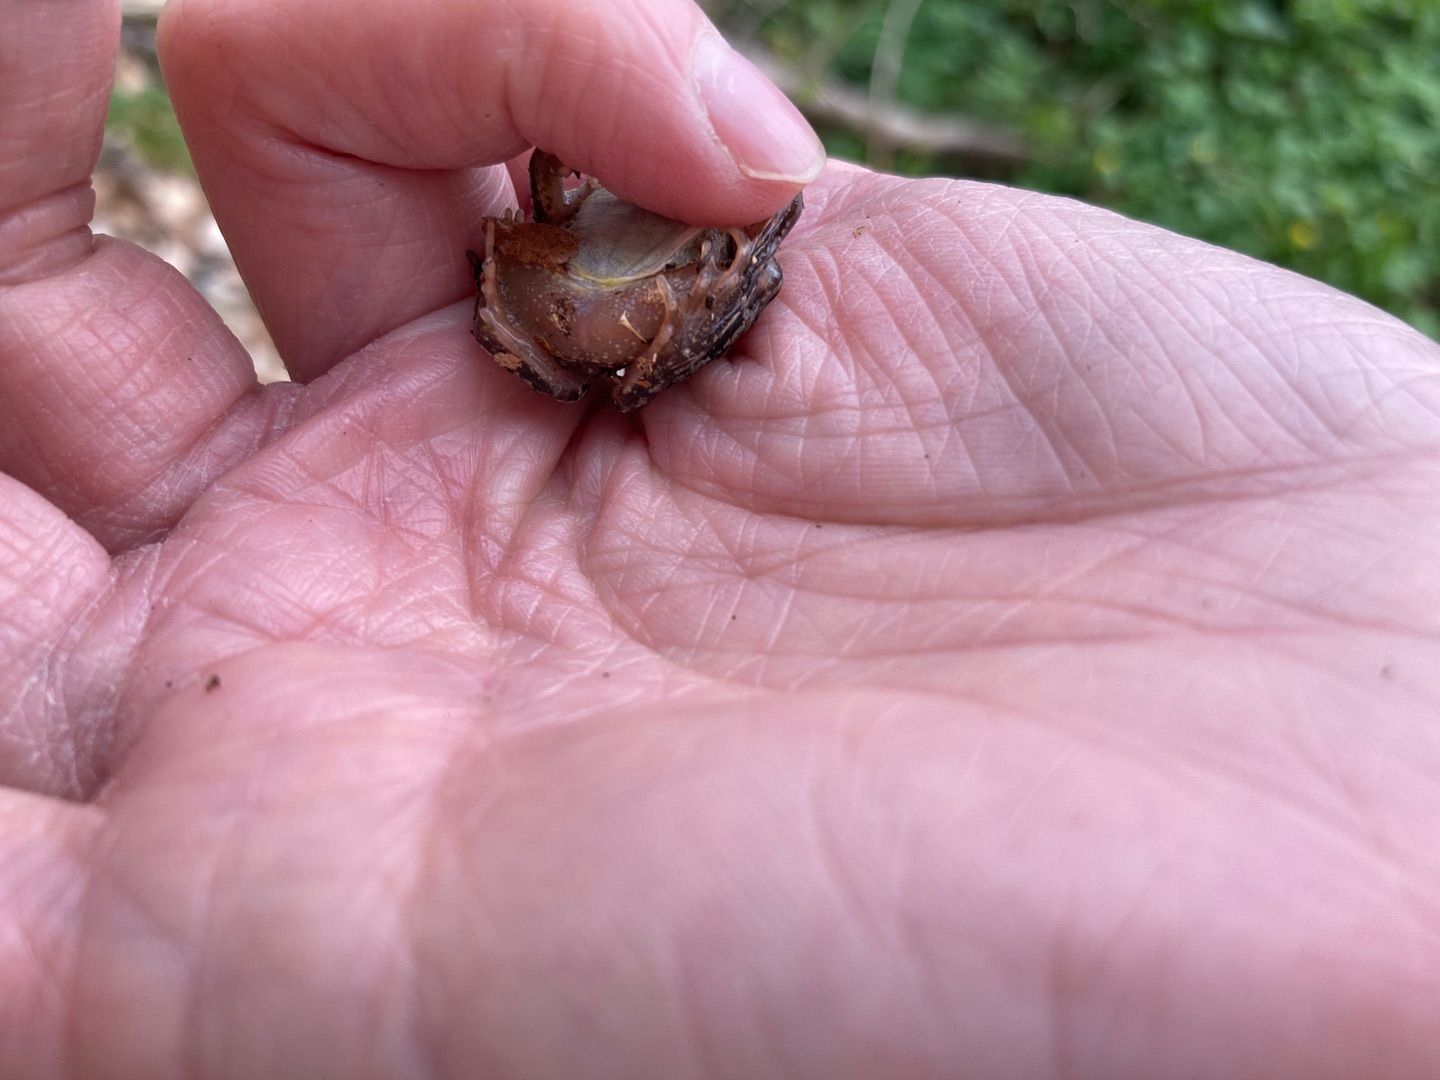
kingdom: Animalia
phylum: Chordata
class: Amphibia
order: Anura
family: Ranidae
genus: Rana
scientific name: Rana temporaria
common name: Butsnudet frø
